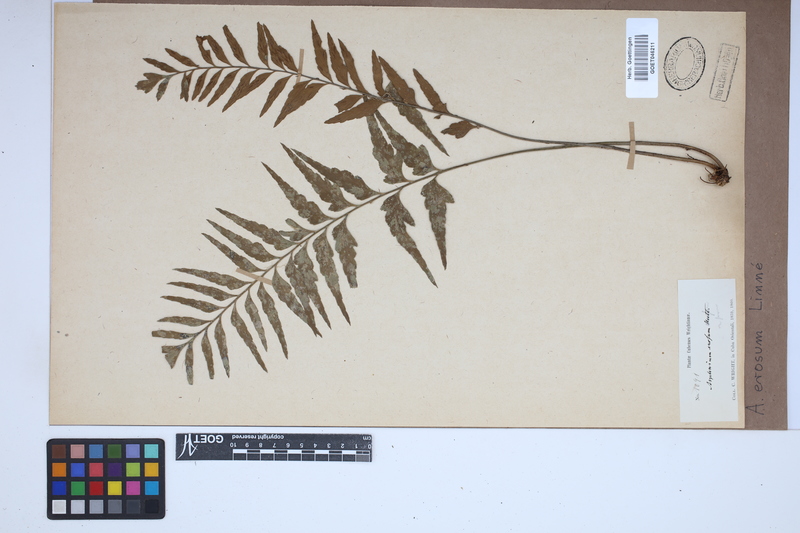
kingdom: Plantae
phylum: Tracheophyta
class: Polypodiopsida
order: Polypodiales
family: Aspleniaceae
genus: Asplenium
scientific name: Asplenium erosum
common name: Eared spleenwort
